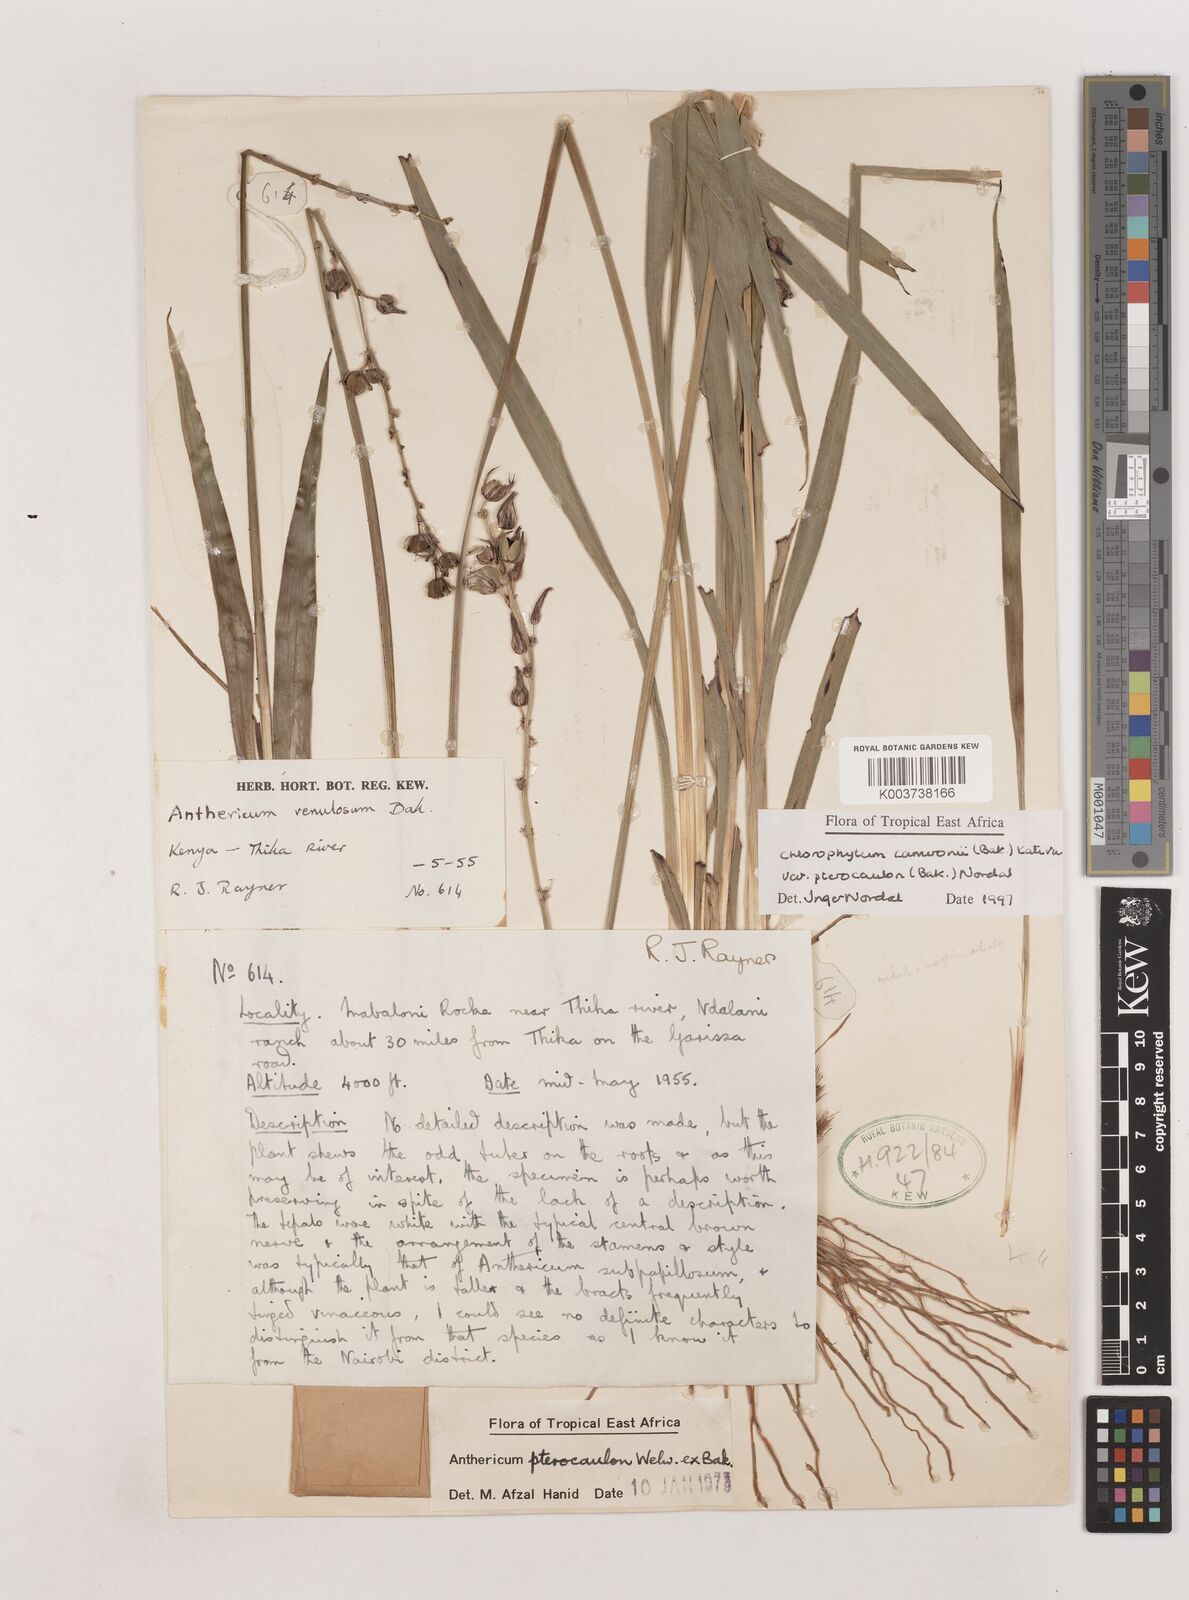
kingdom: Plantae
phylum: Tracheophyta
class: Liliopsida
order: Asparagales
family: Asparagaceae
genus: Chlorophytum
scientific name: Chlorophytum cameronii
